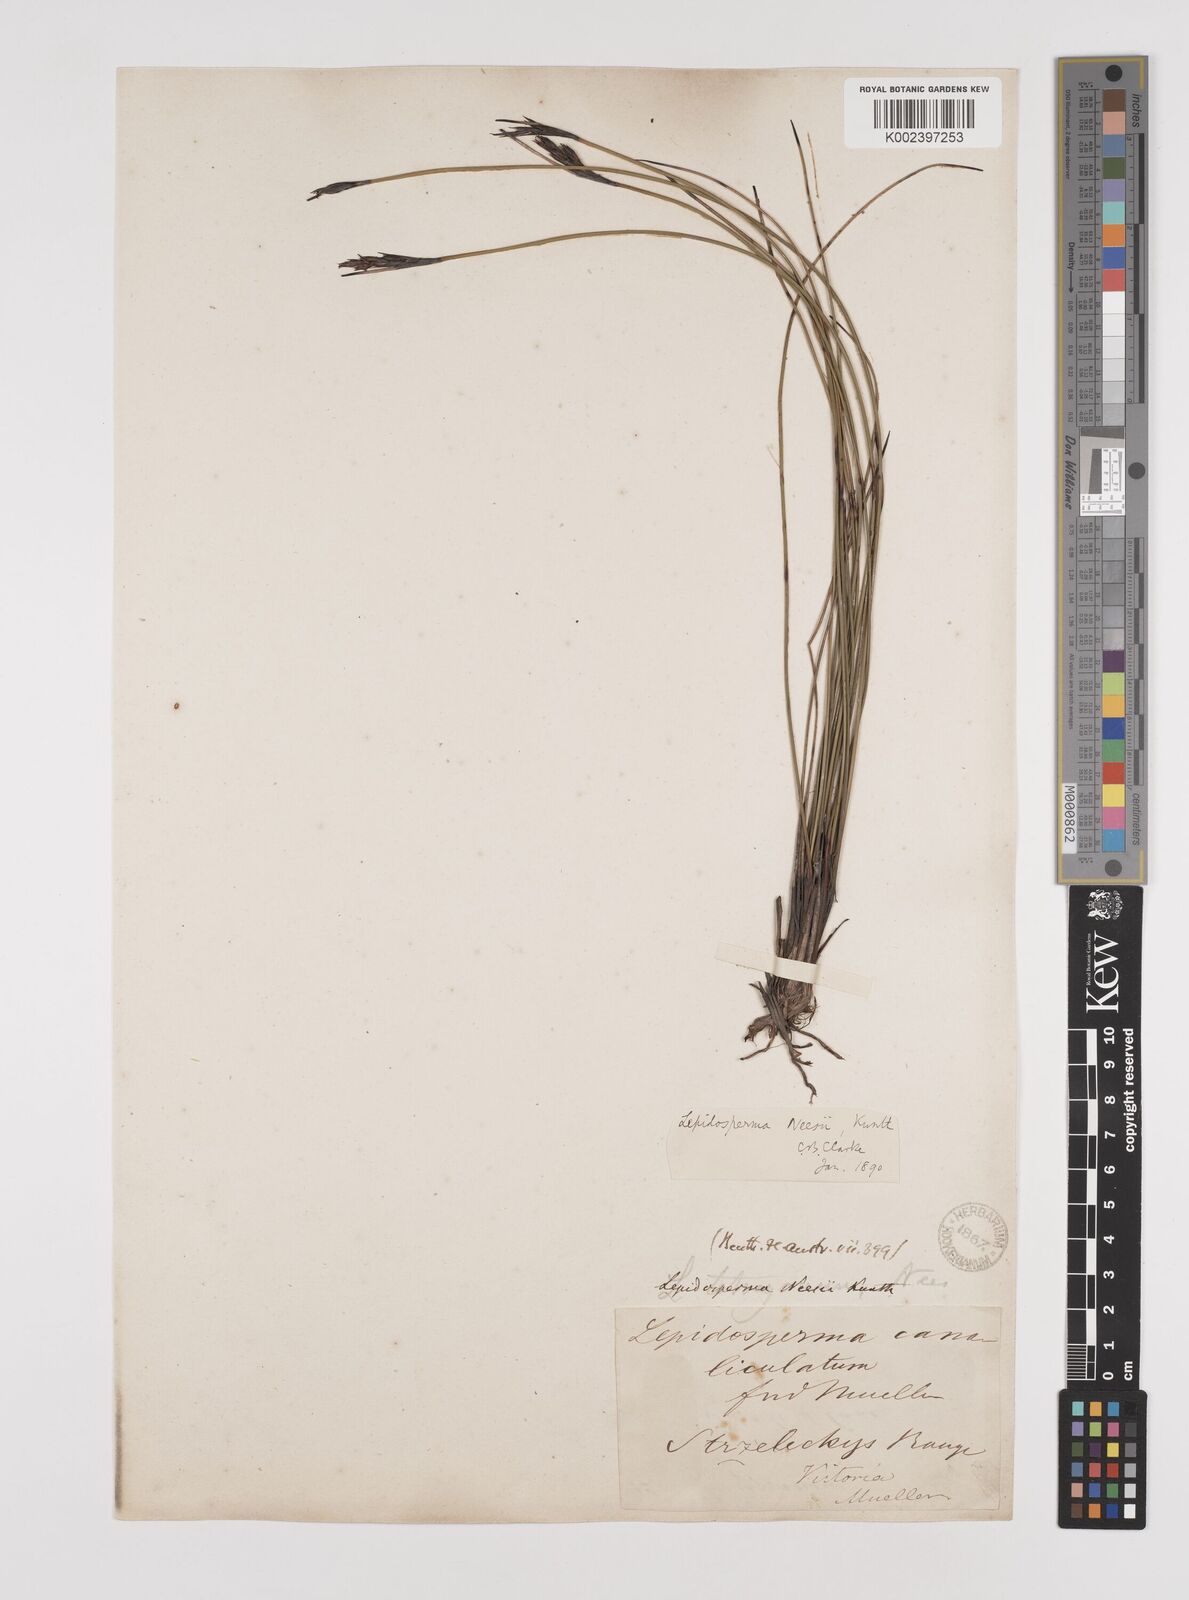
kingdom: Plantae
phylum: Tracheophyta
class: Liliopsida
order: Poales
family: Cyperaceae
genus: Lepidosperma
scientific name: Lepidosperma neesii
